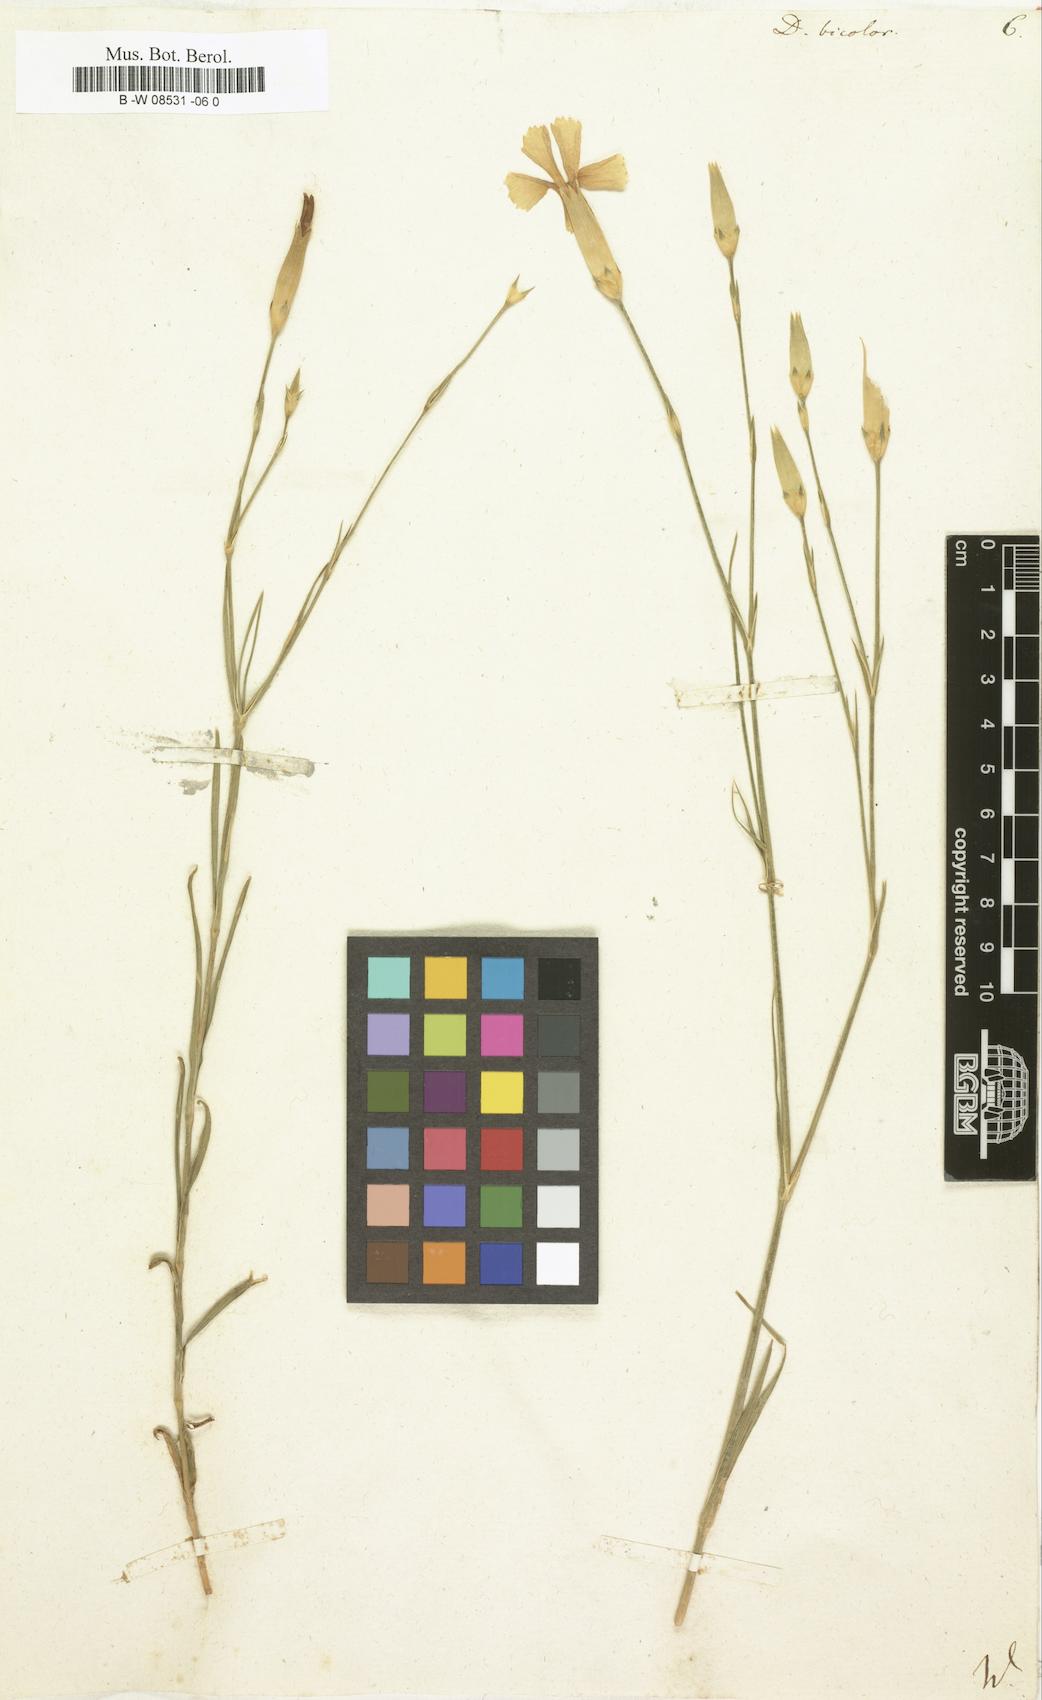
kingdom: Plantae
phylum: Tracheophyta
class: Magnoliopsida
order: Caryophyllales
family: Caryophyllaceae
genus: Dianthus
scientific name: Dianthus bicolor
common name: Bicolour pink
